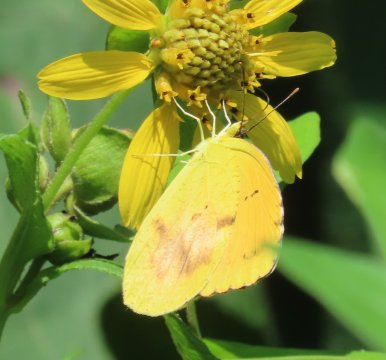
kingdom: Animalia
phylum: Arthropoda
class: Insecta
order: Lepidoptera
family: Pieridae
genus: Abaeis
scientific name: Abaeis nicippe
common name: Sleepy Orange
